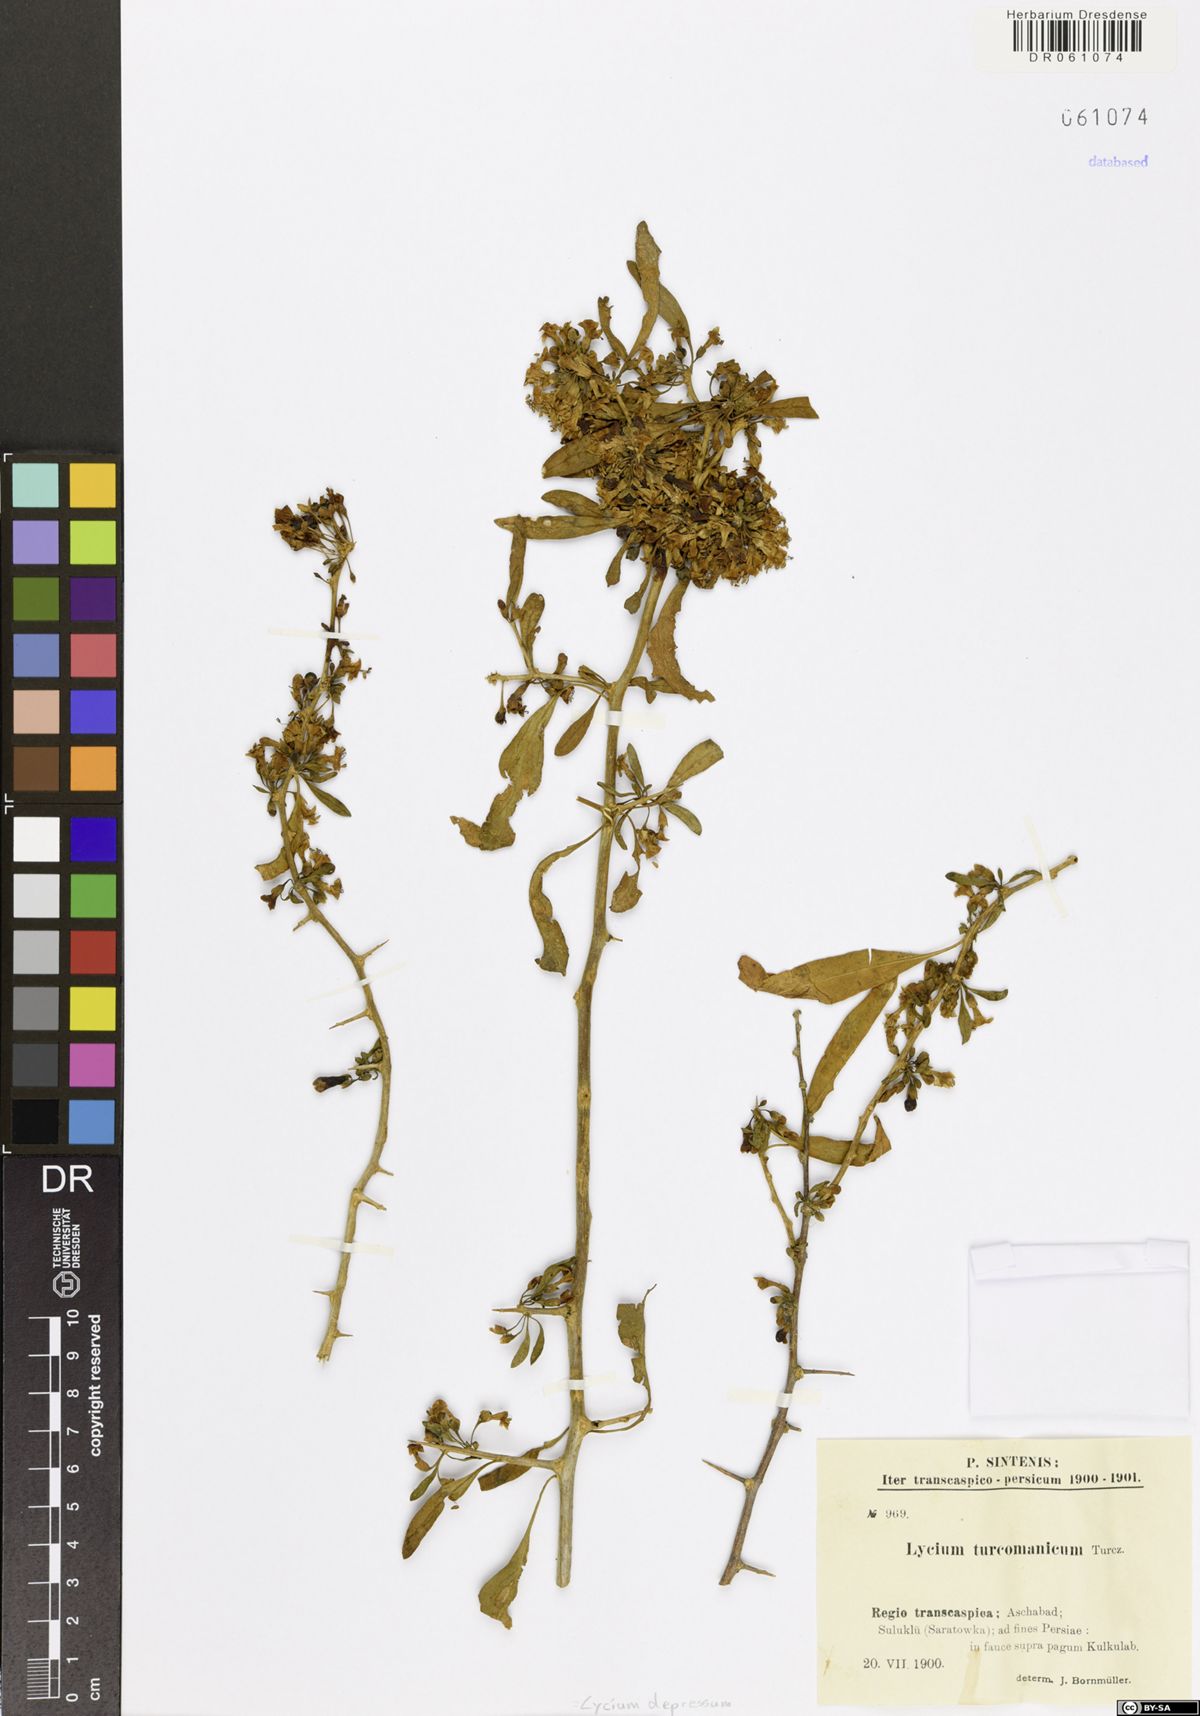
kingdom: Plantae
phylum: Tracheophyta
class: Magnoliopsida
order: Solanales
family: Solanaceae
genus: Lycium
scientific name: Lycium depressum
